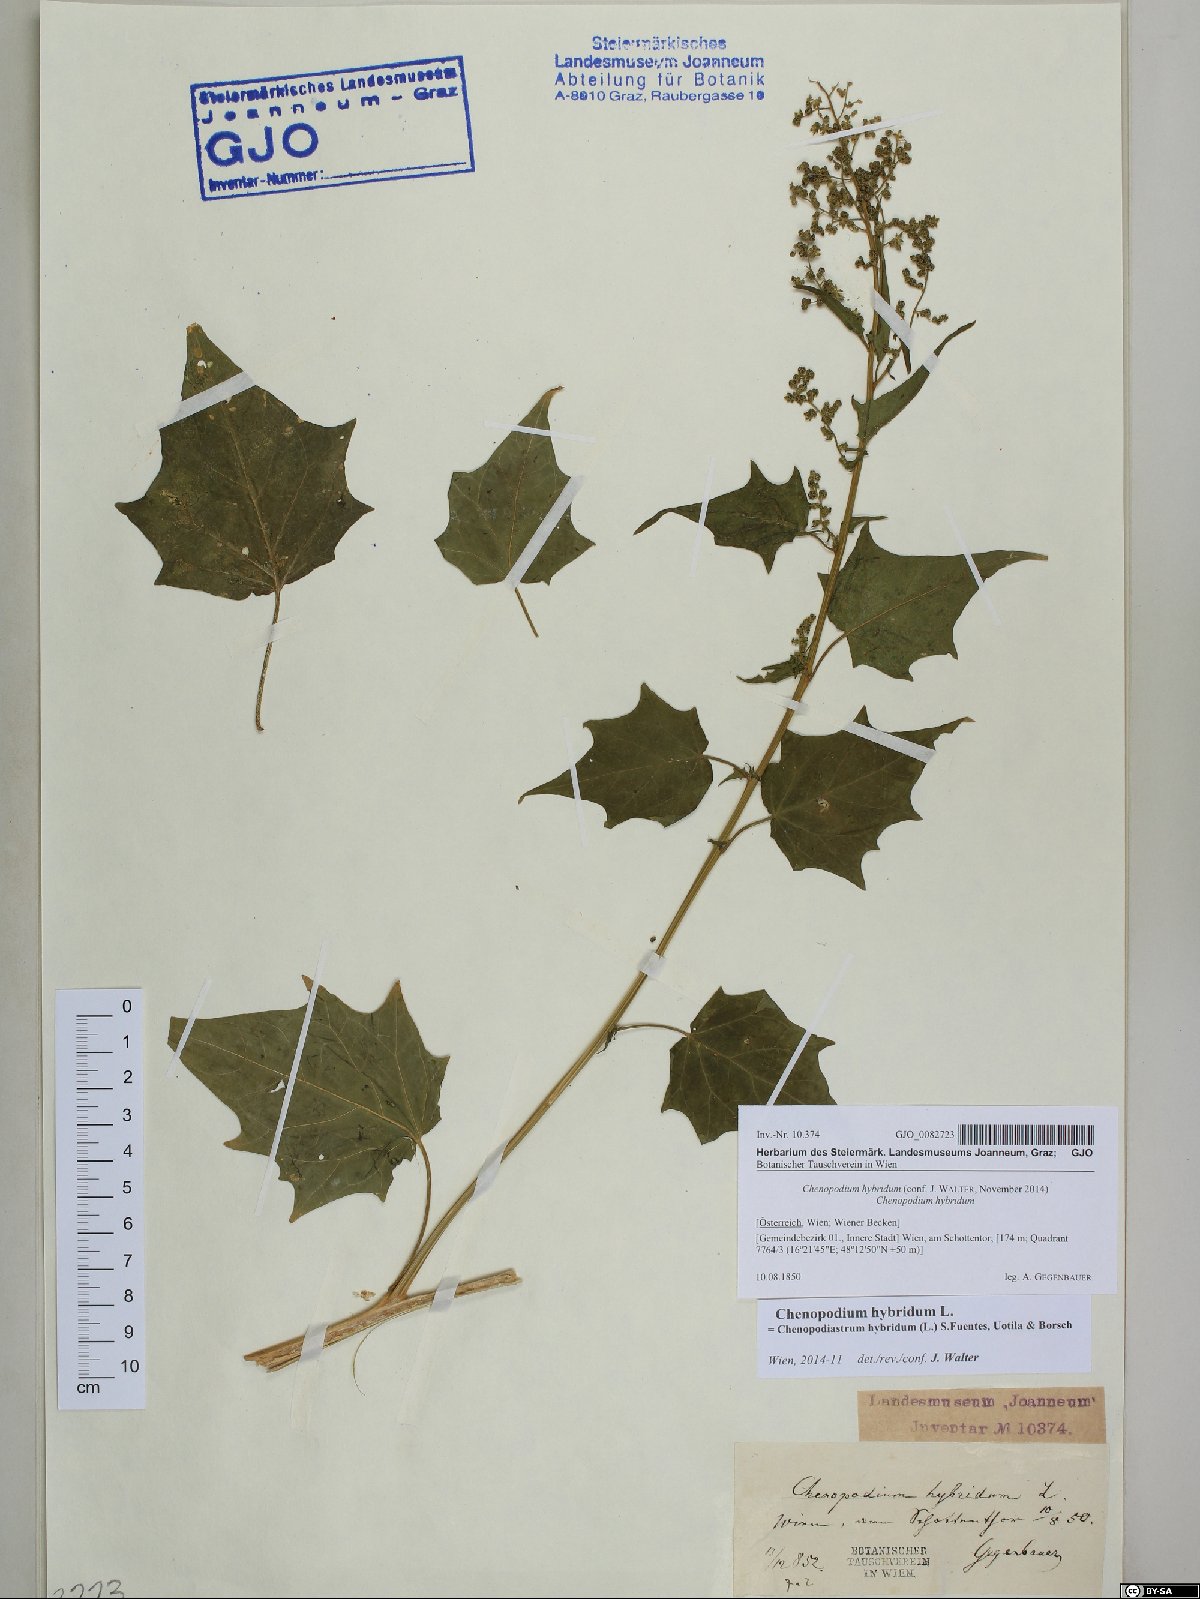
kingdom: Plantae
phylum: Tracheophyta
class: Magnoliopsida
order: Caryophyllales
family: Amaranthaceae
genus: Chenopodiastrum
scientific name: Chenopodiastrum hybridum
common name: Mapleleaf goosefoot
